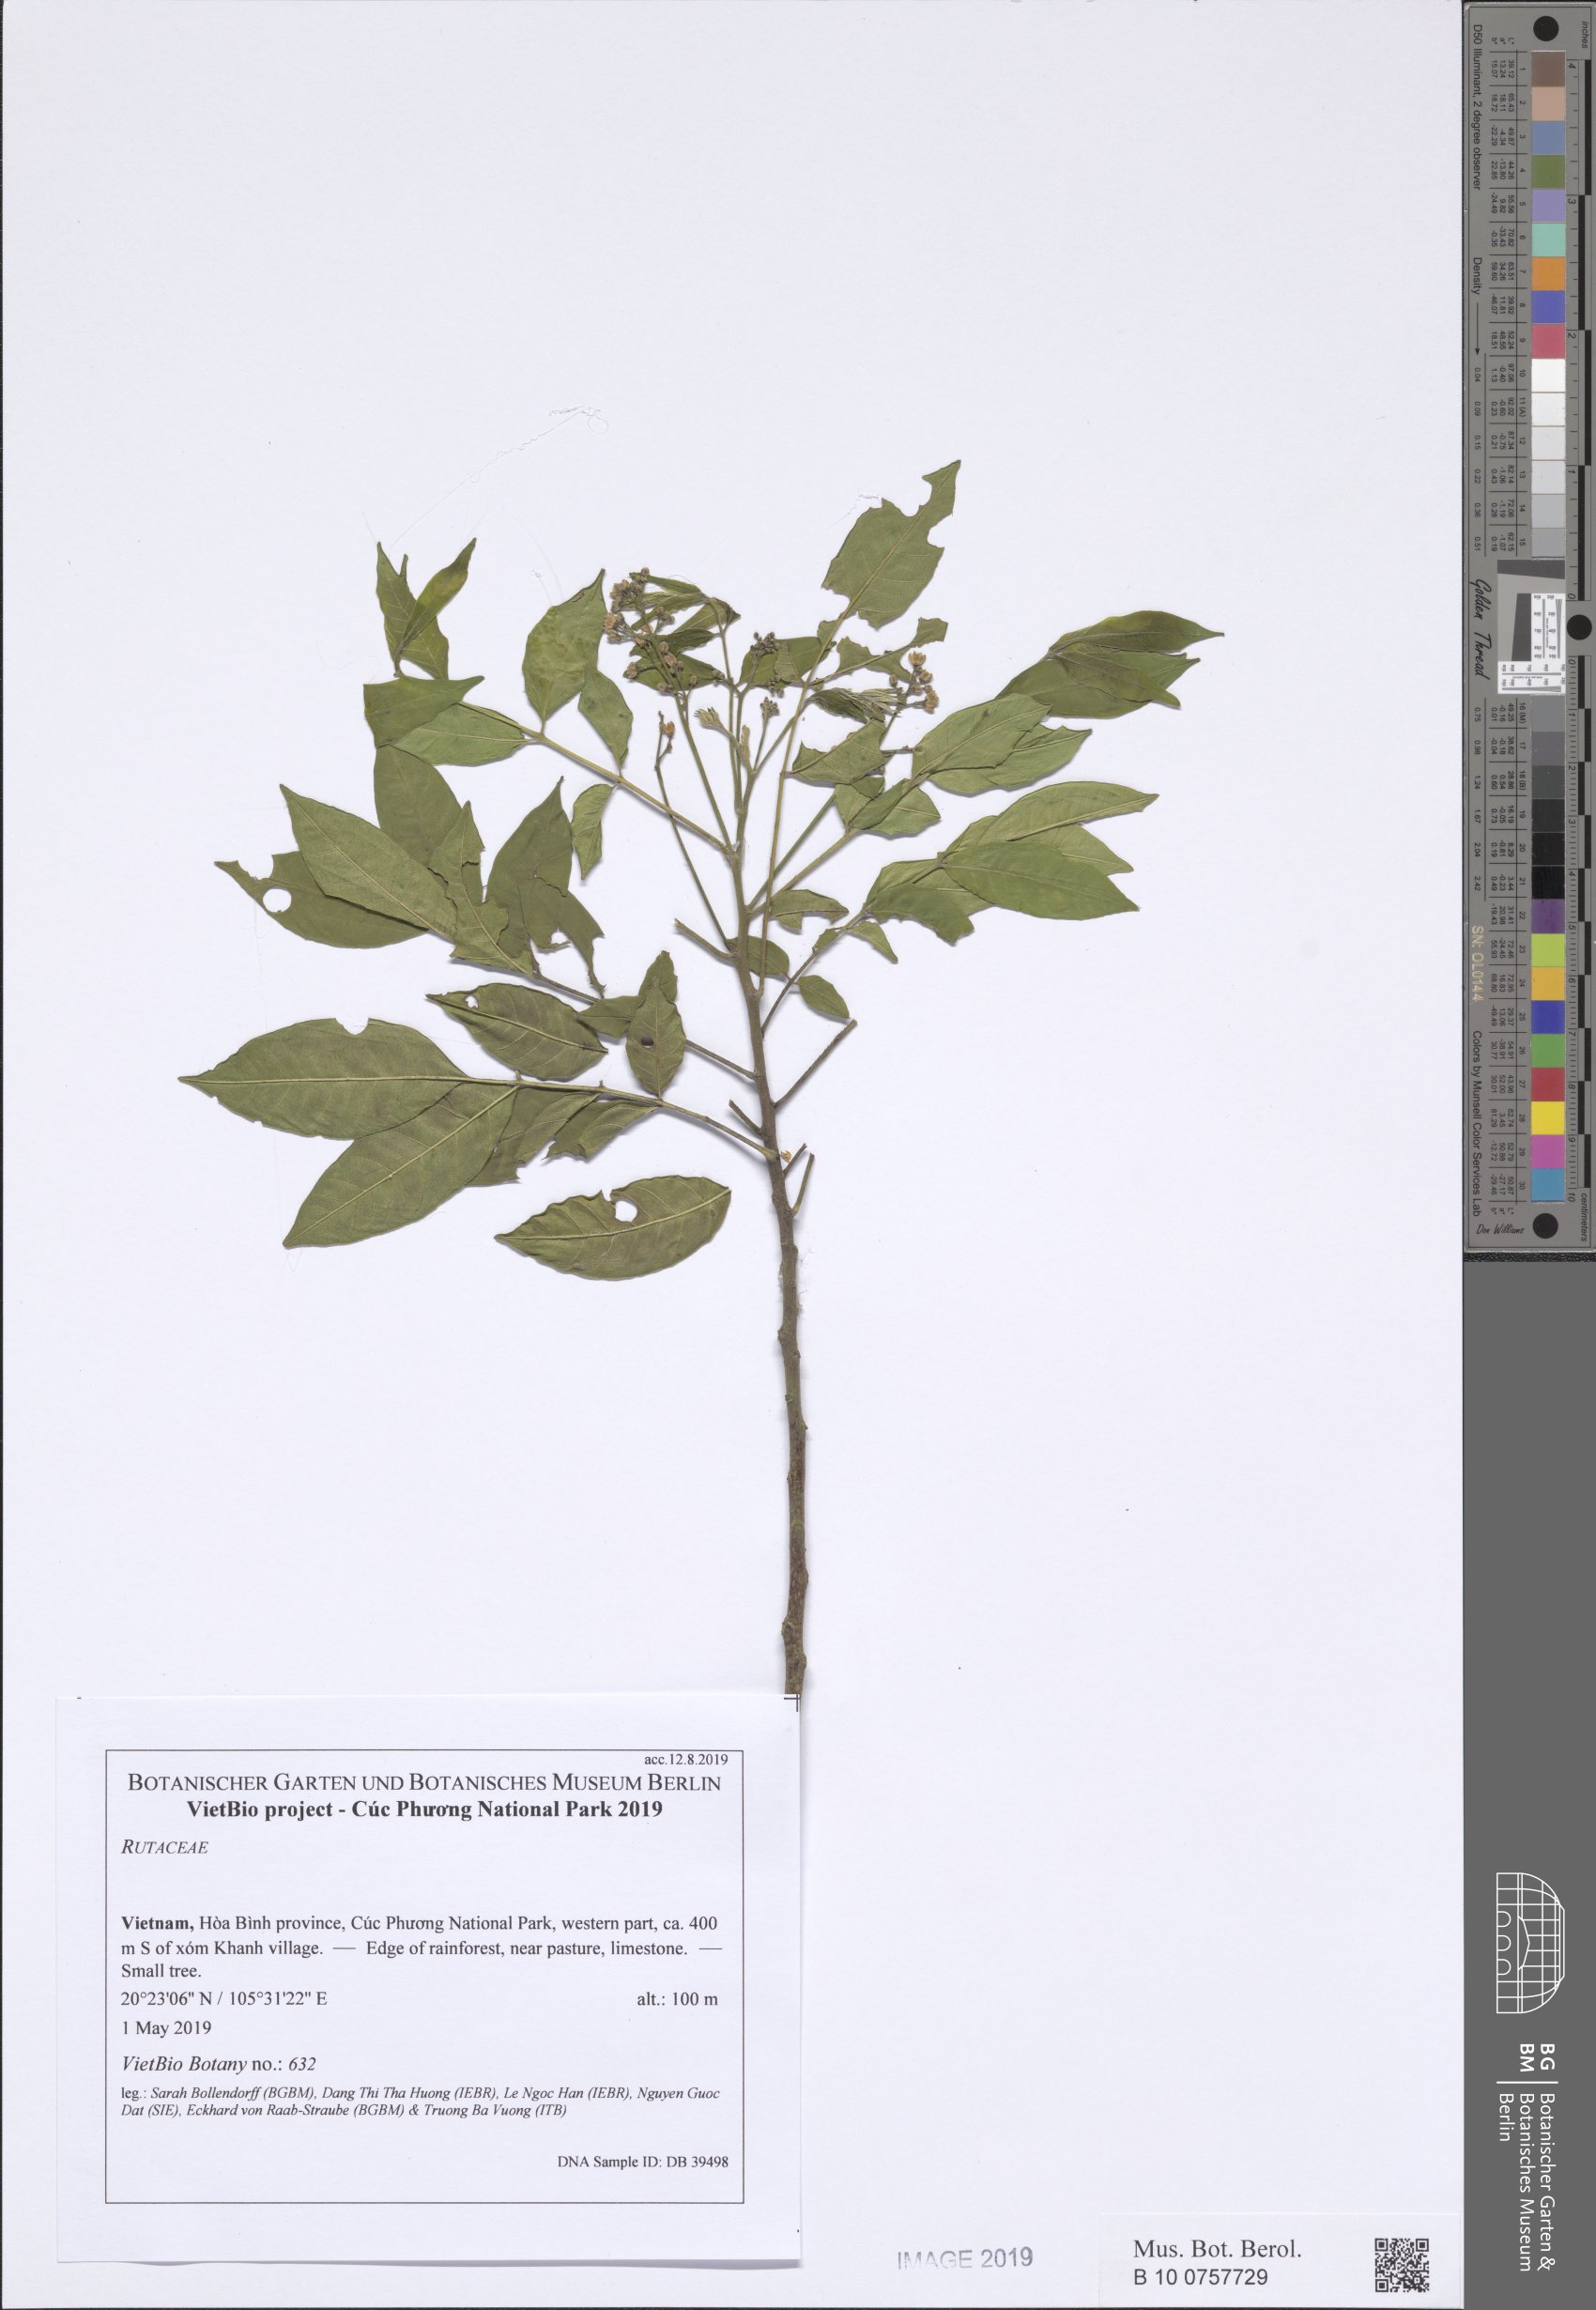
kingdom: Plantae
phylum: Tracheophyta
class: Magnoliopsida
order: Sapindales
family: Rutaceae
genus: Clausena
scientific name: Clausena
